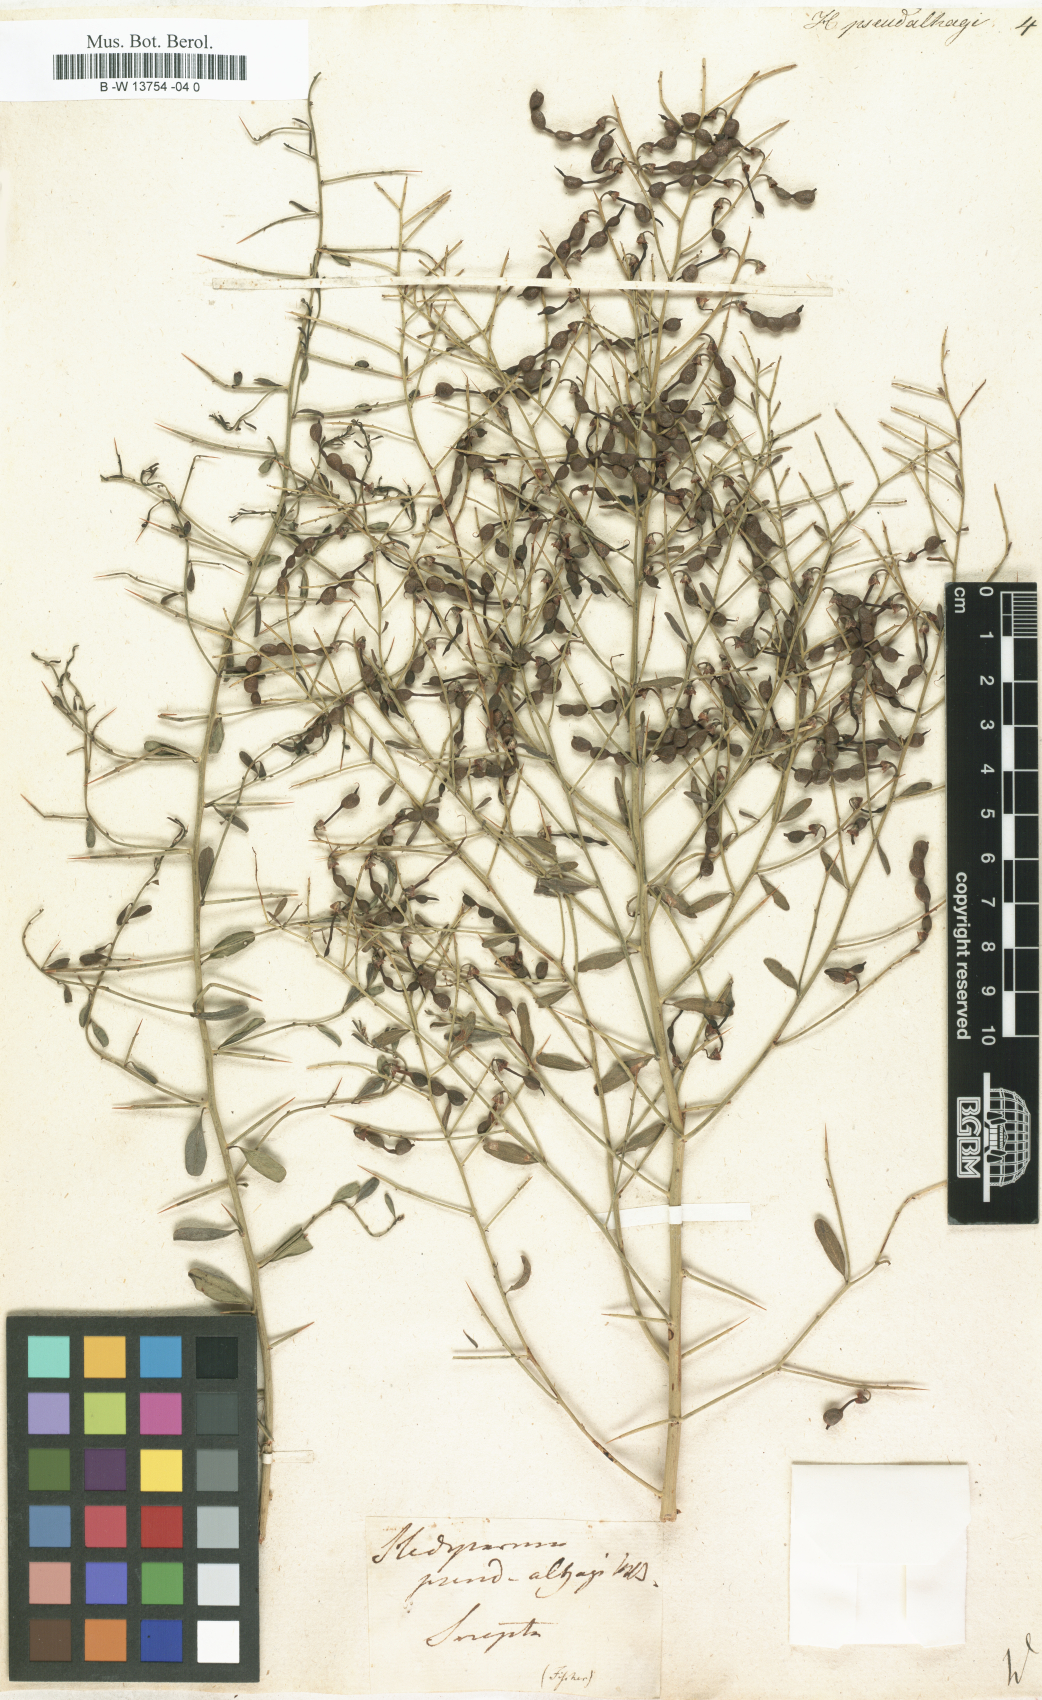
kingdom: Plantae
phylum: Tracheophyta
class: Magnoliopsida
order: Fabales
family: Fabaceae
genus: Alhagi
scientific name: Alhagi pseudalhagi
